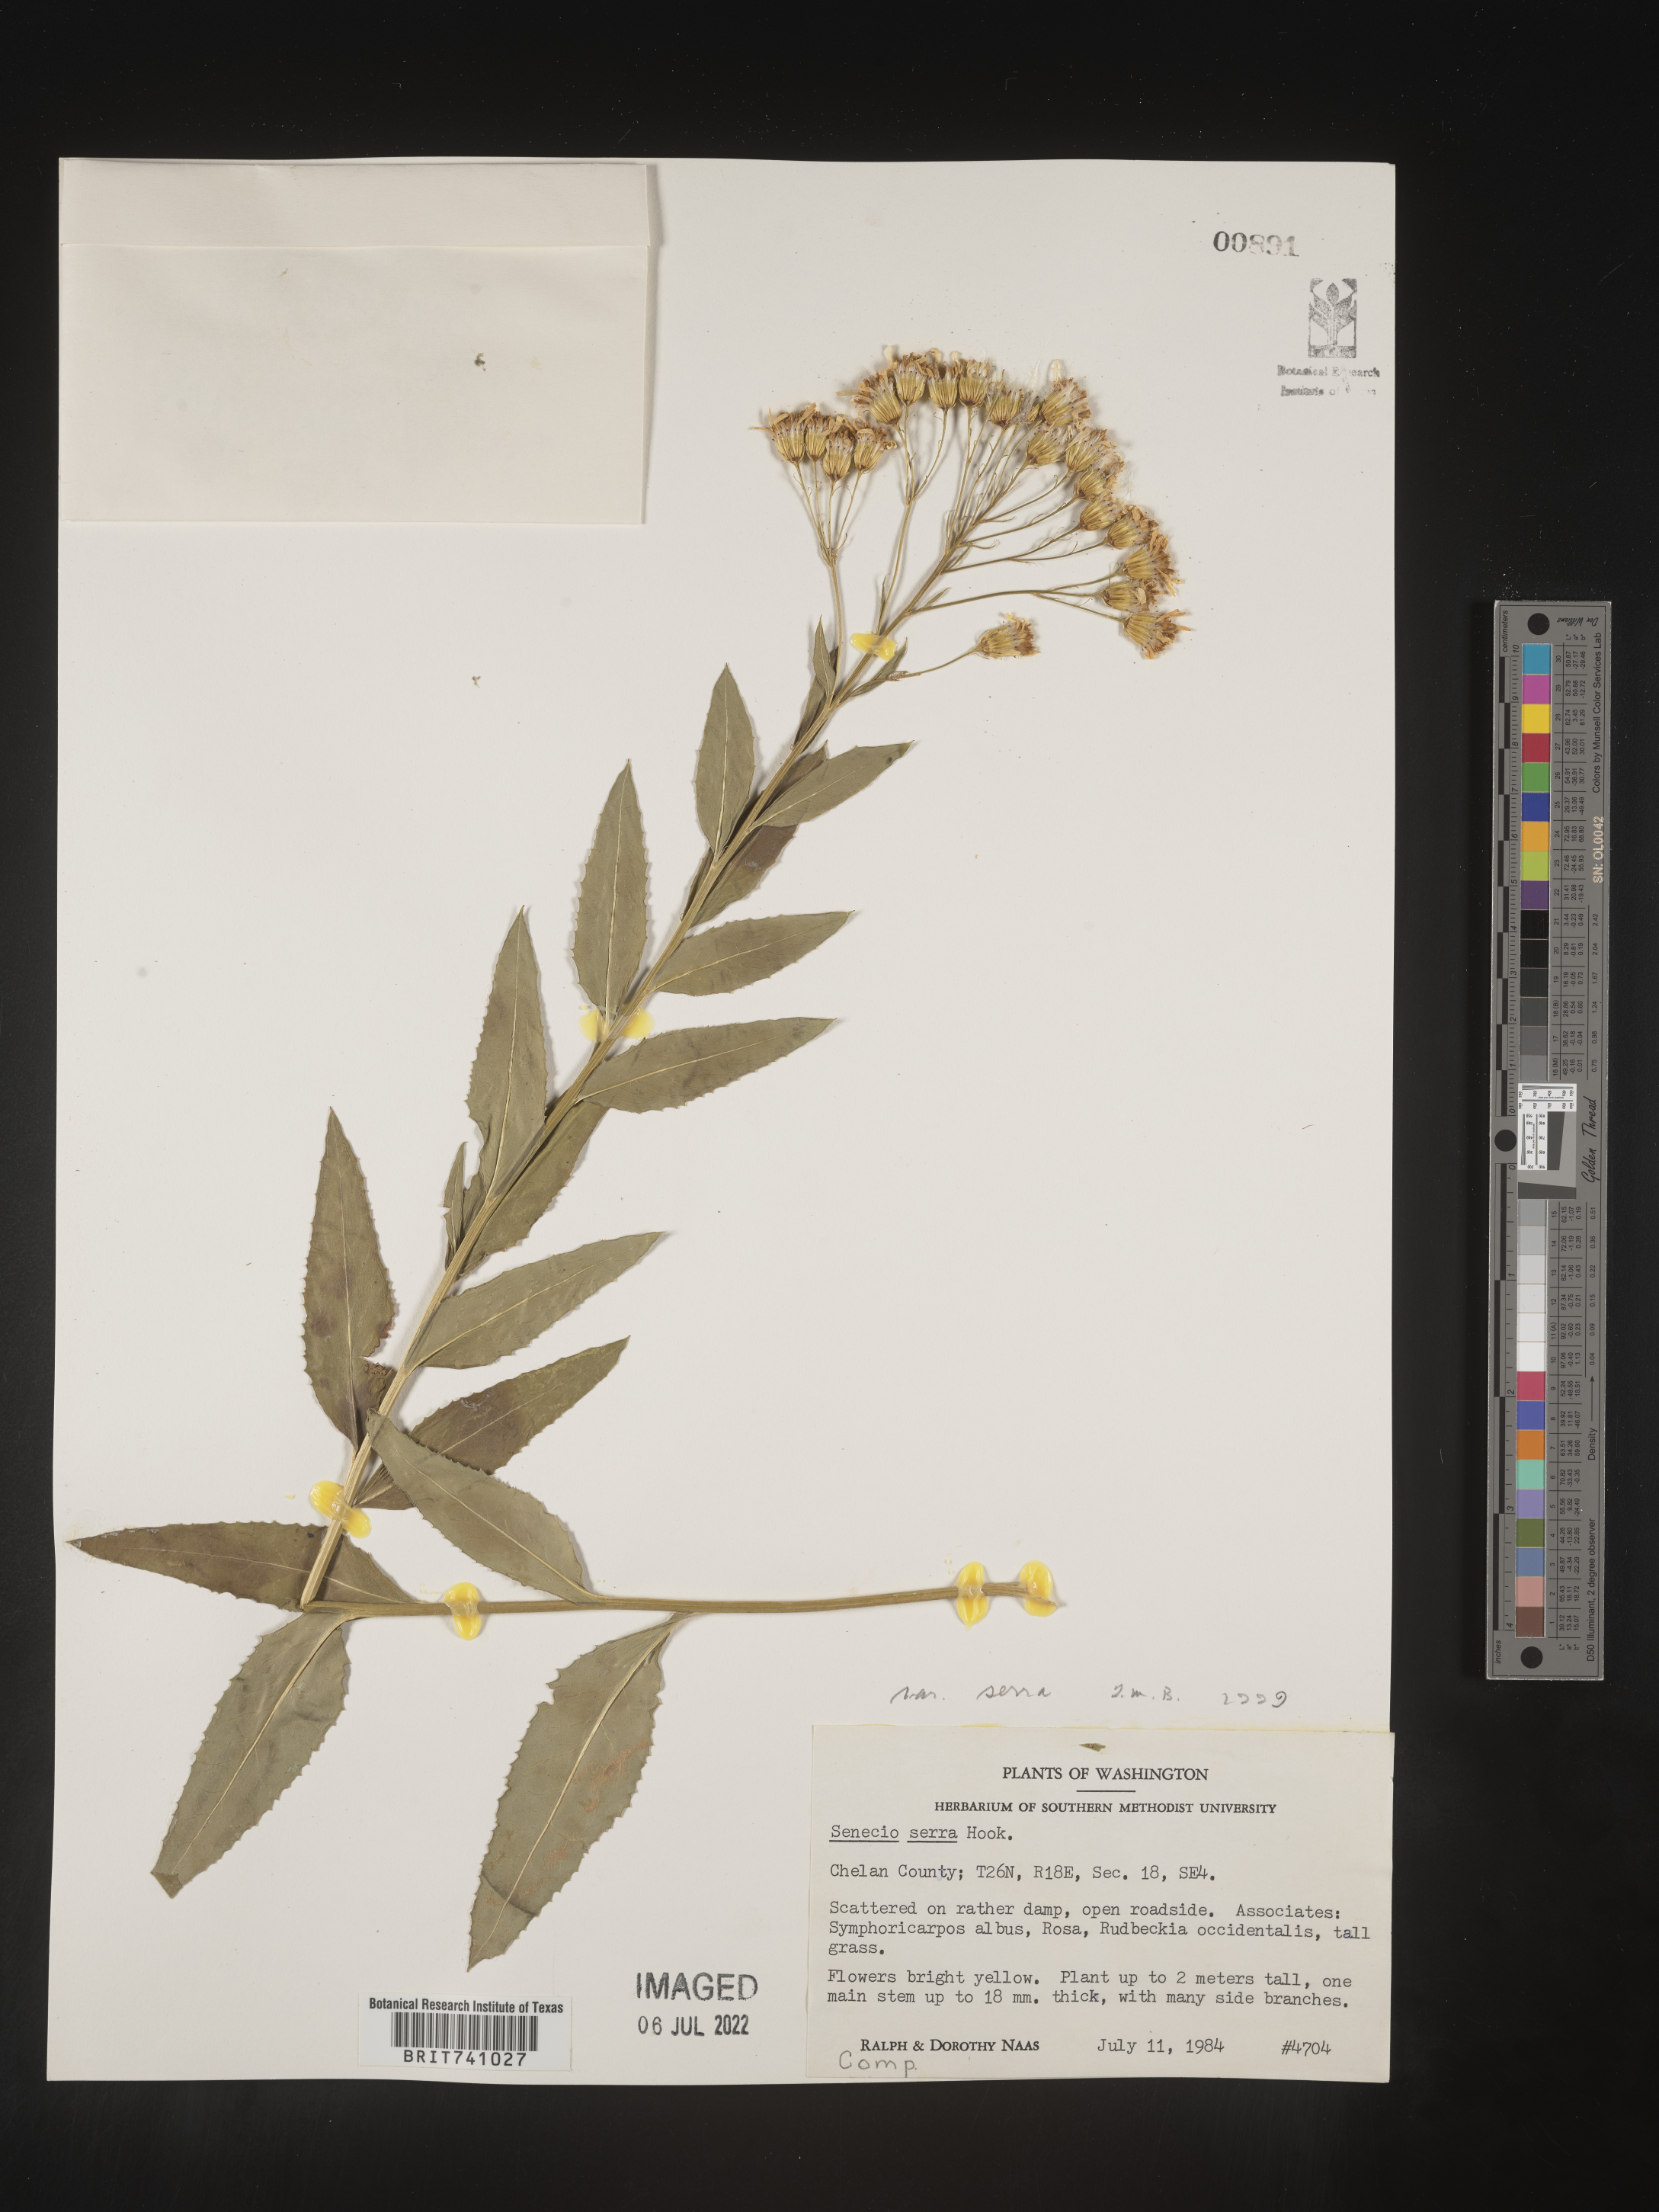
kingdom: Plantae
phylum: Tracheophyta
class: Magnoliopsida
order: Asterales
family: Asteraceae
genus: Senecio
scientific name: Senecio serra
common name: Tall ragwort
